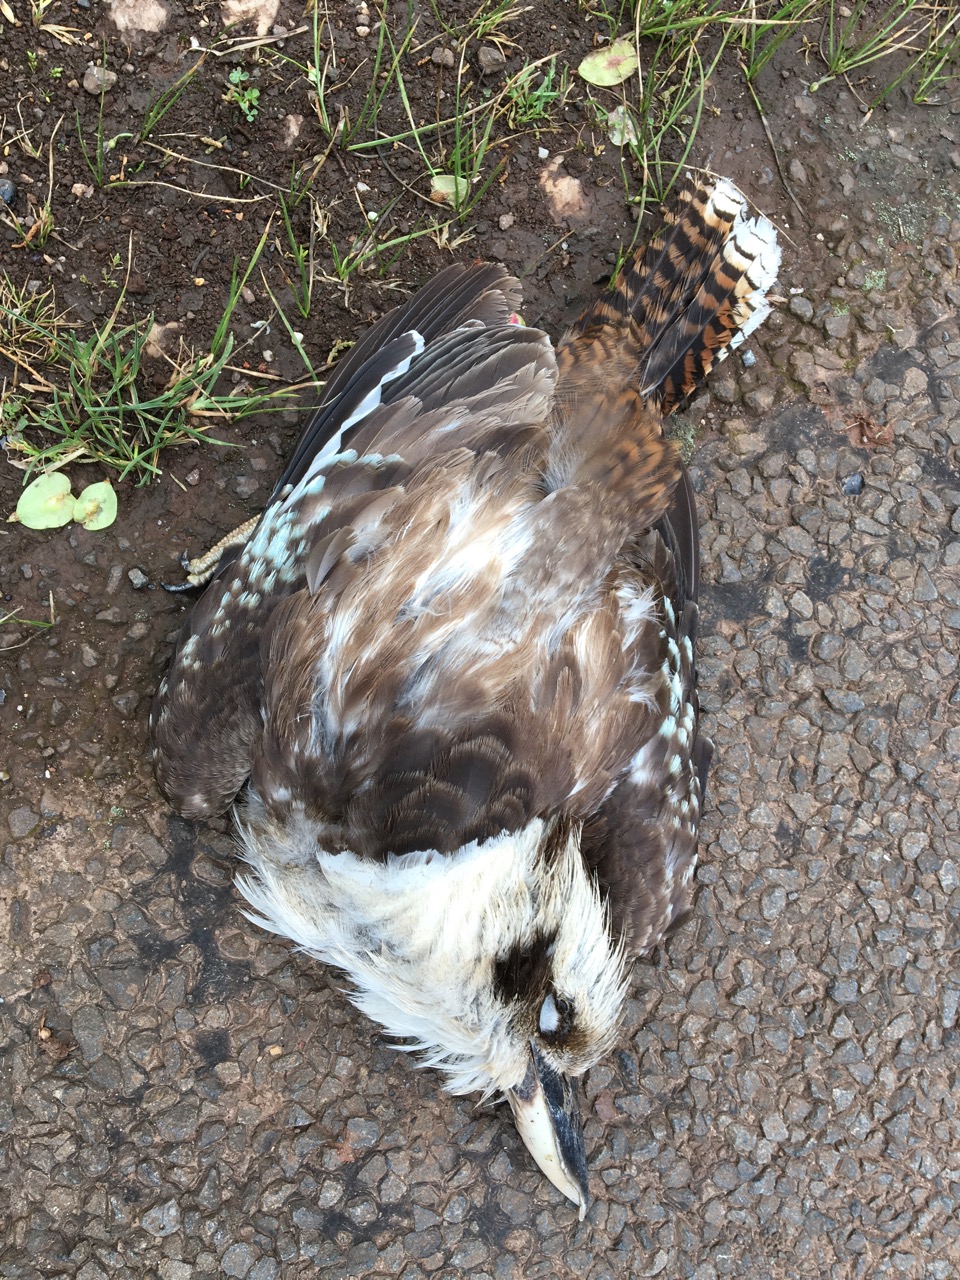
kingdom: Animalia
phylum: Chordata
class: Aves
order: Coraciiformes
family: Alcedinidae
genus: Dacelo
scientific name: Dacelo novaeguineae
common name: Laughing kookaburra
